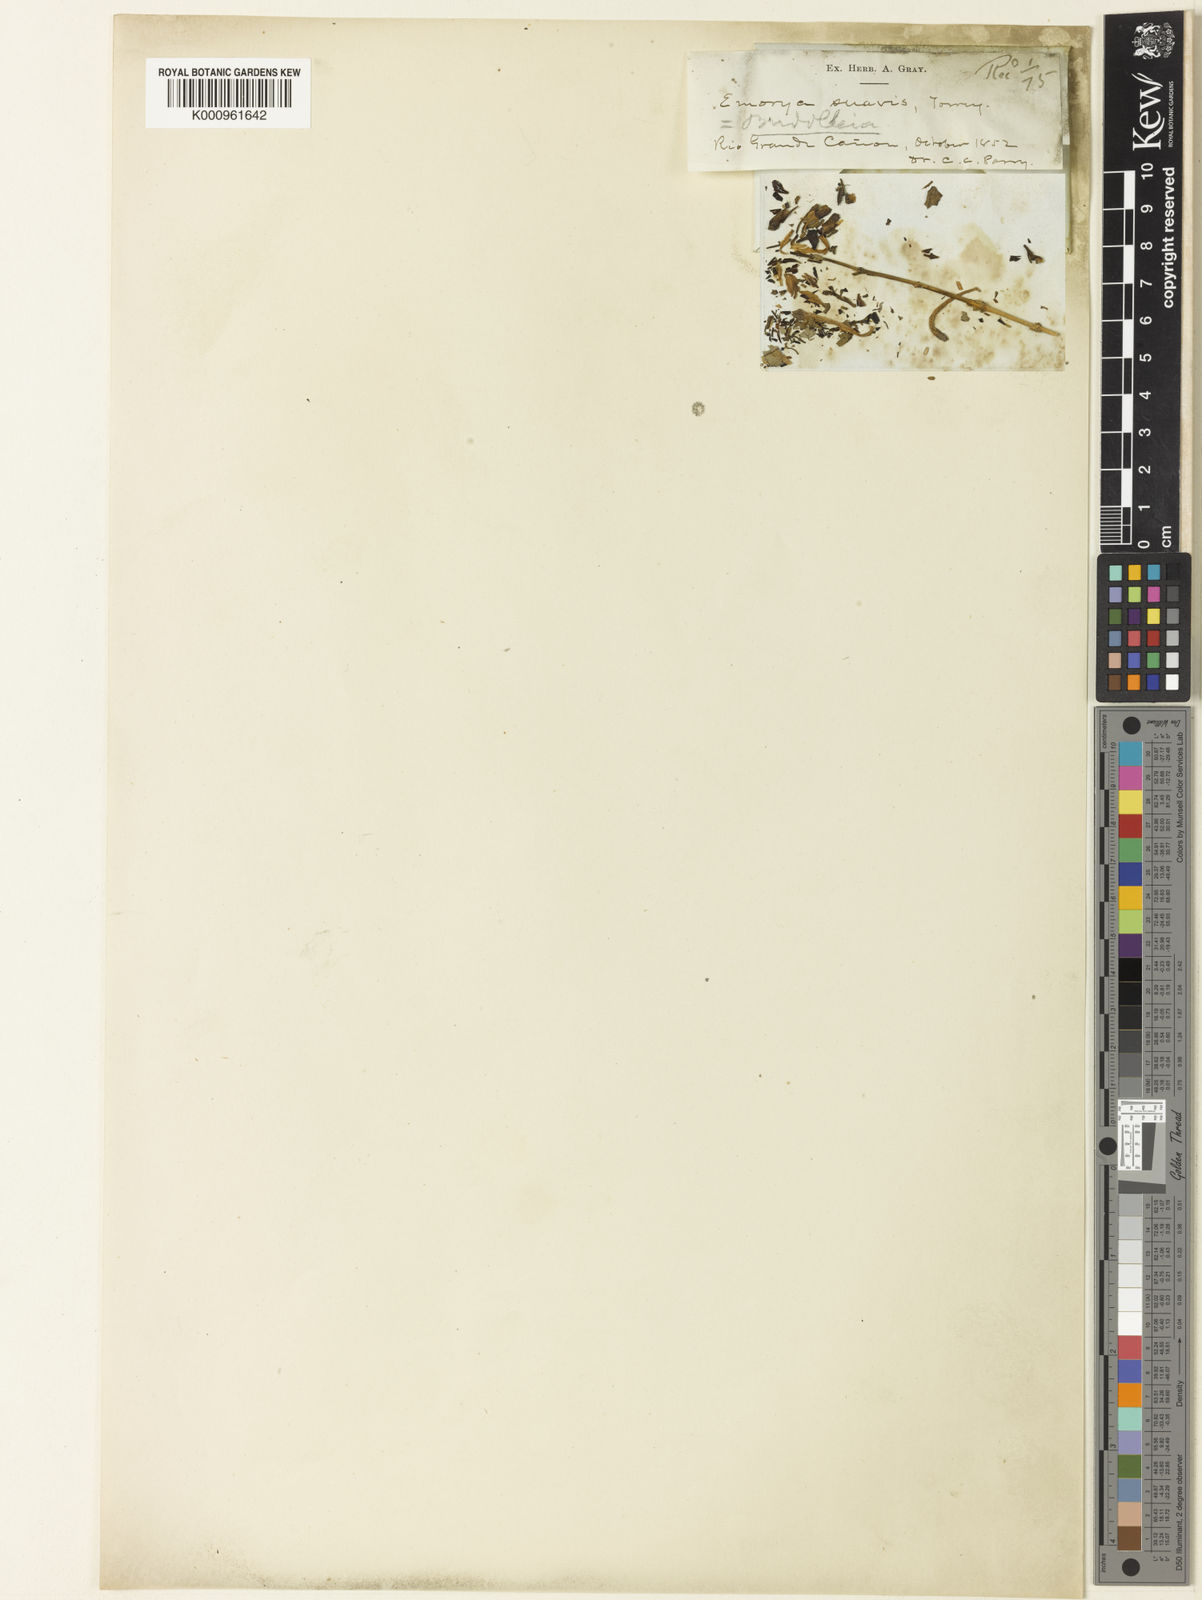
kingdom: Plantae
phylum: Tracheophyta
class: Magnoliopsida
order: Lamiales
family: Scrophulariaceae
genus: Buddleja
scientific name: Buddleja normaniae
